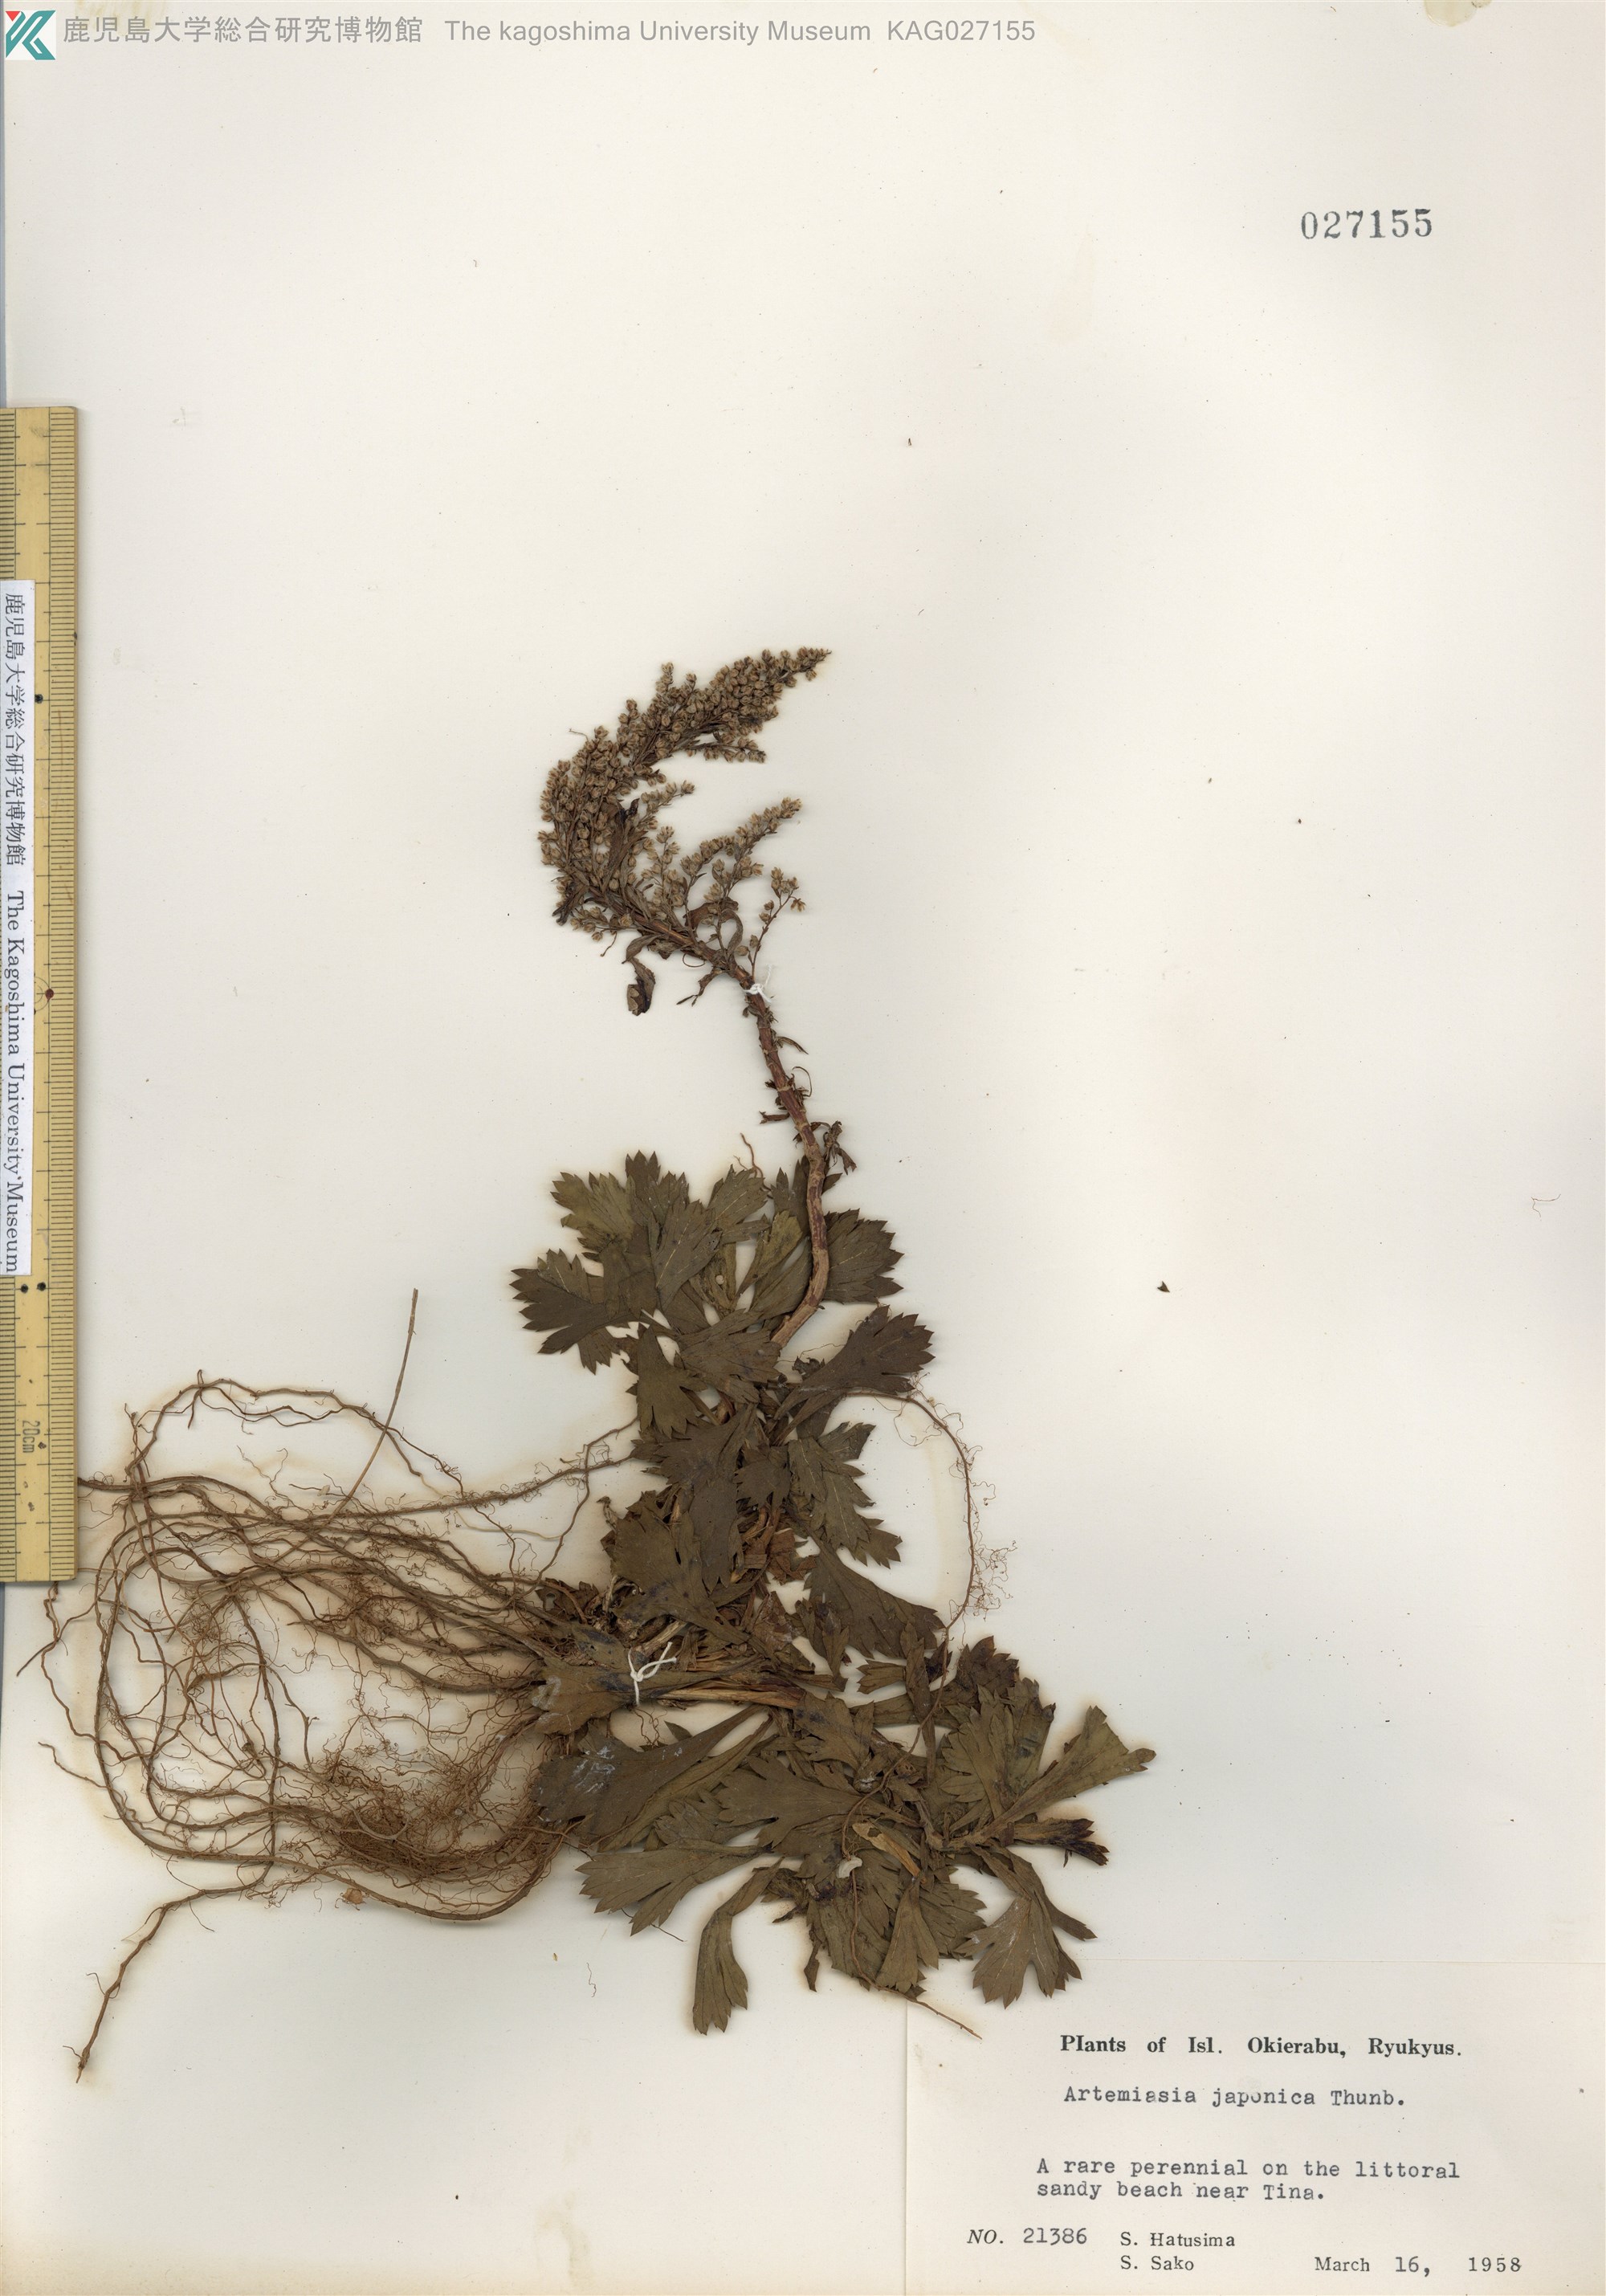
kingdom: Plantae
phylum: Tracheophyta
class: Magnoliopsida
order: Asterales
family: Asteraceae
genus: Artemisia
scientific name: Artemisia japonica
